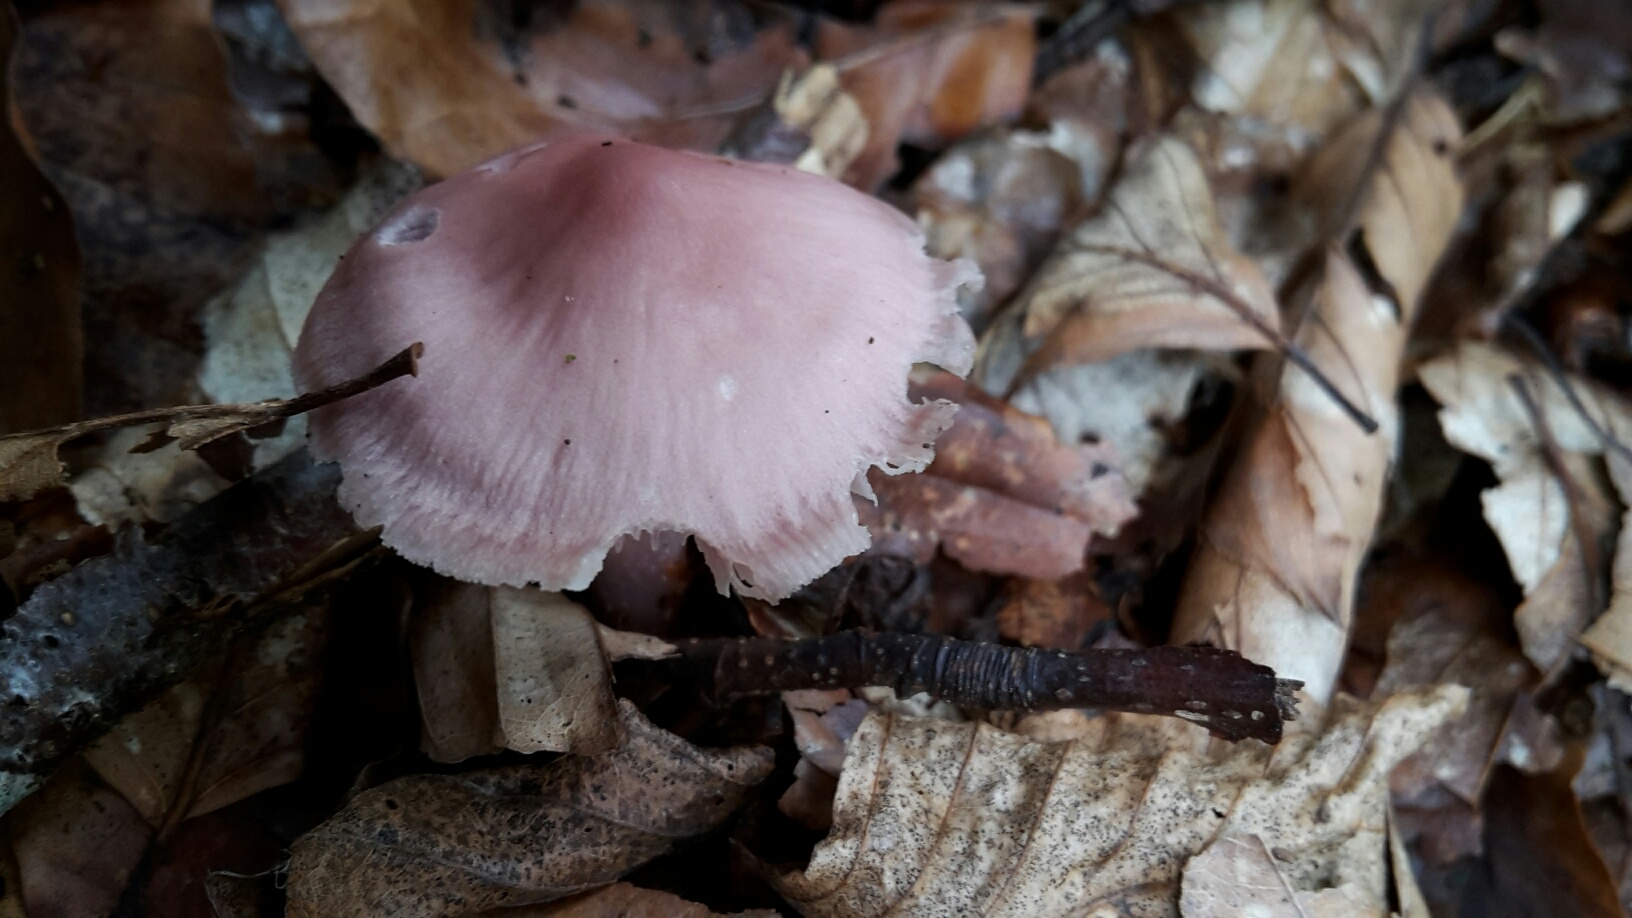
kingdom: Fungi
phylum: Basidiomycota
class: Agaricomycetes
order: Agaricales
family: Mycenaceae
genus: Mycena
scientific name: Mycena rosea
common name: rosa huesvamp
